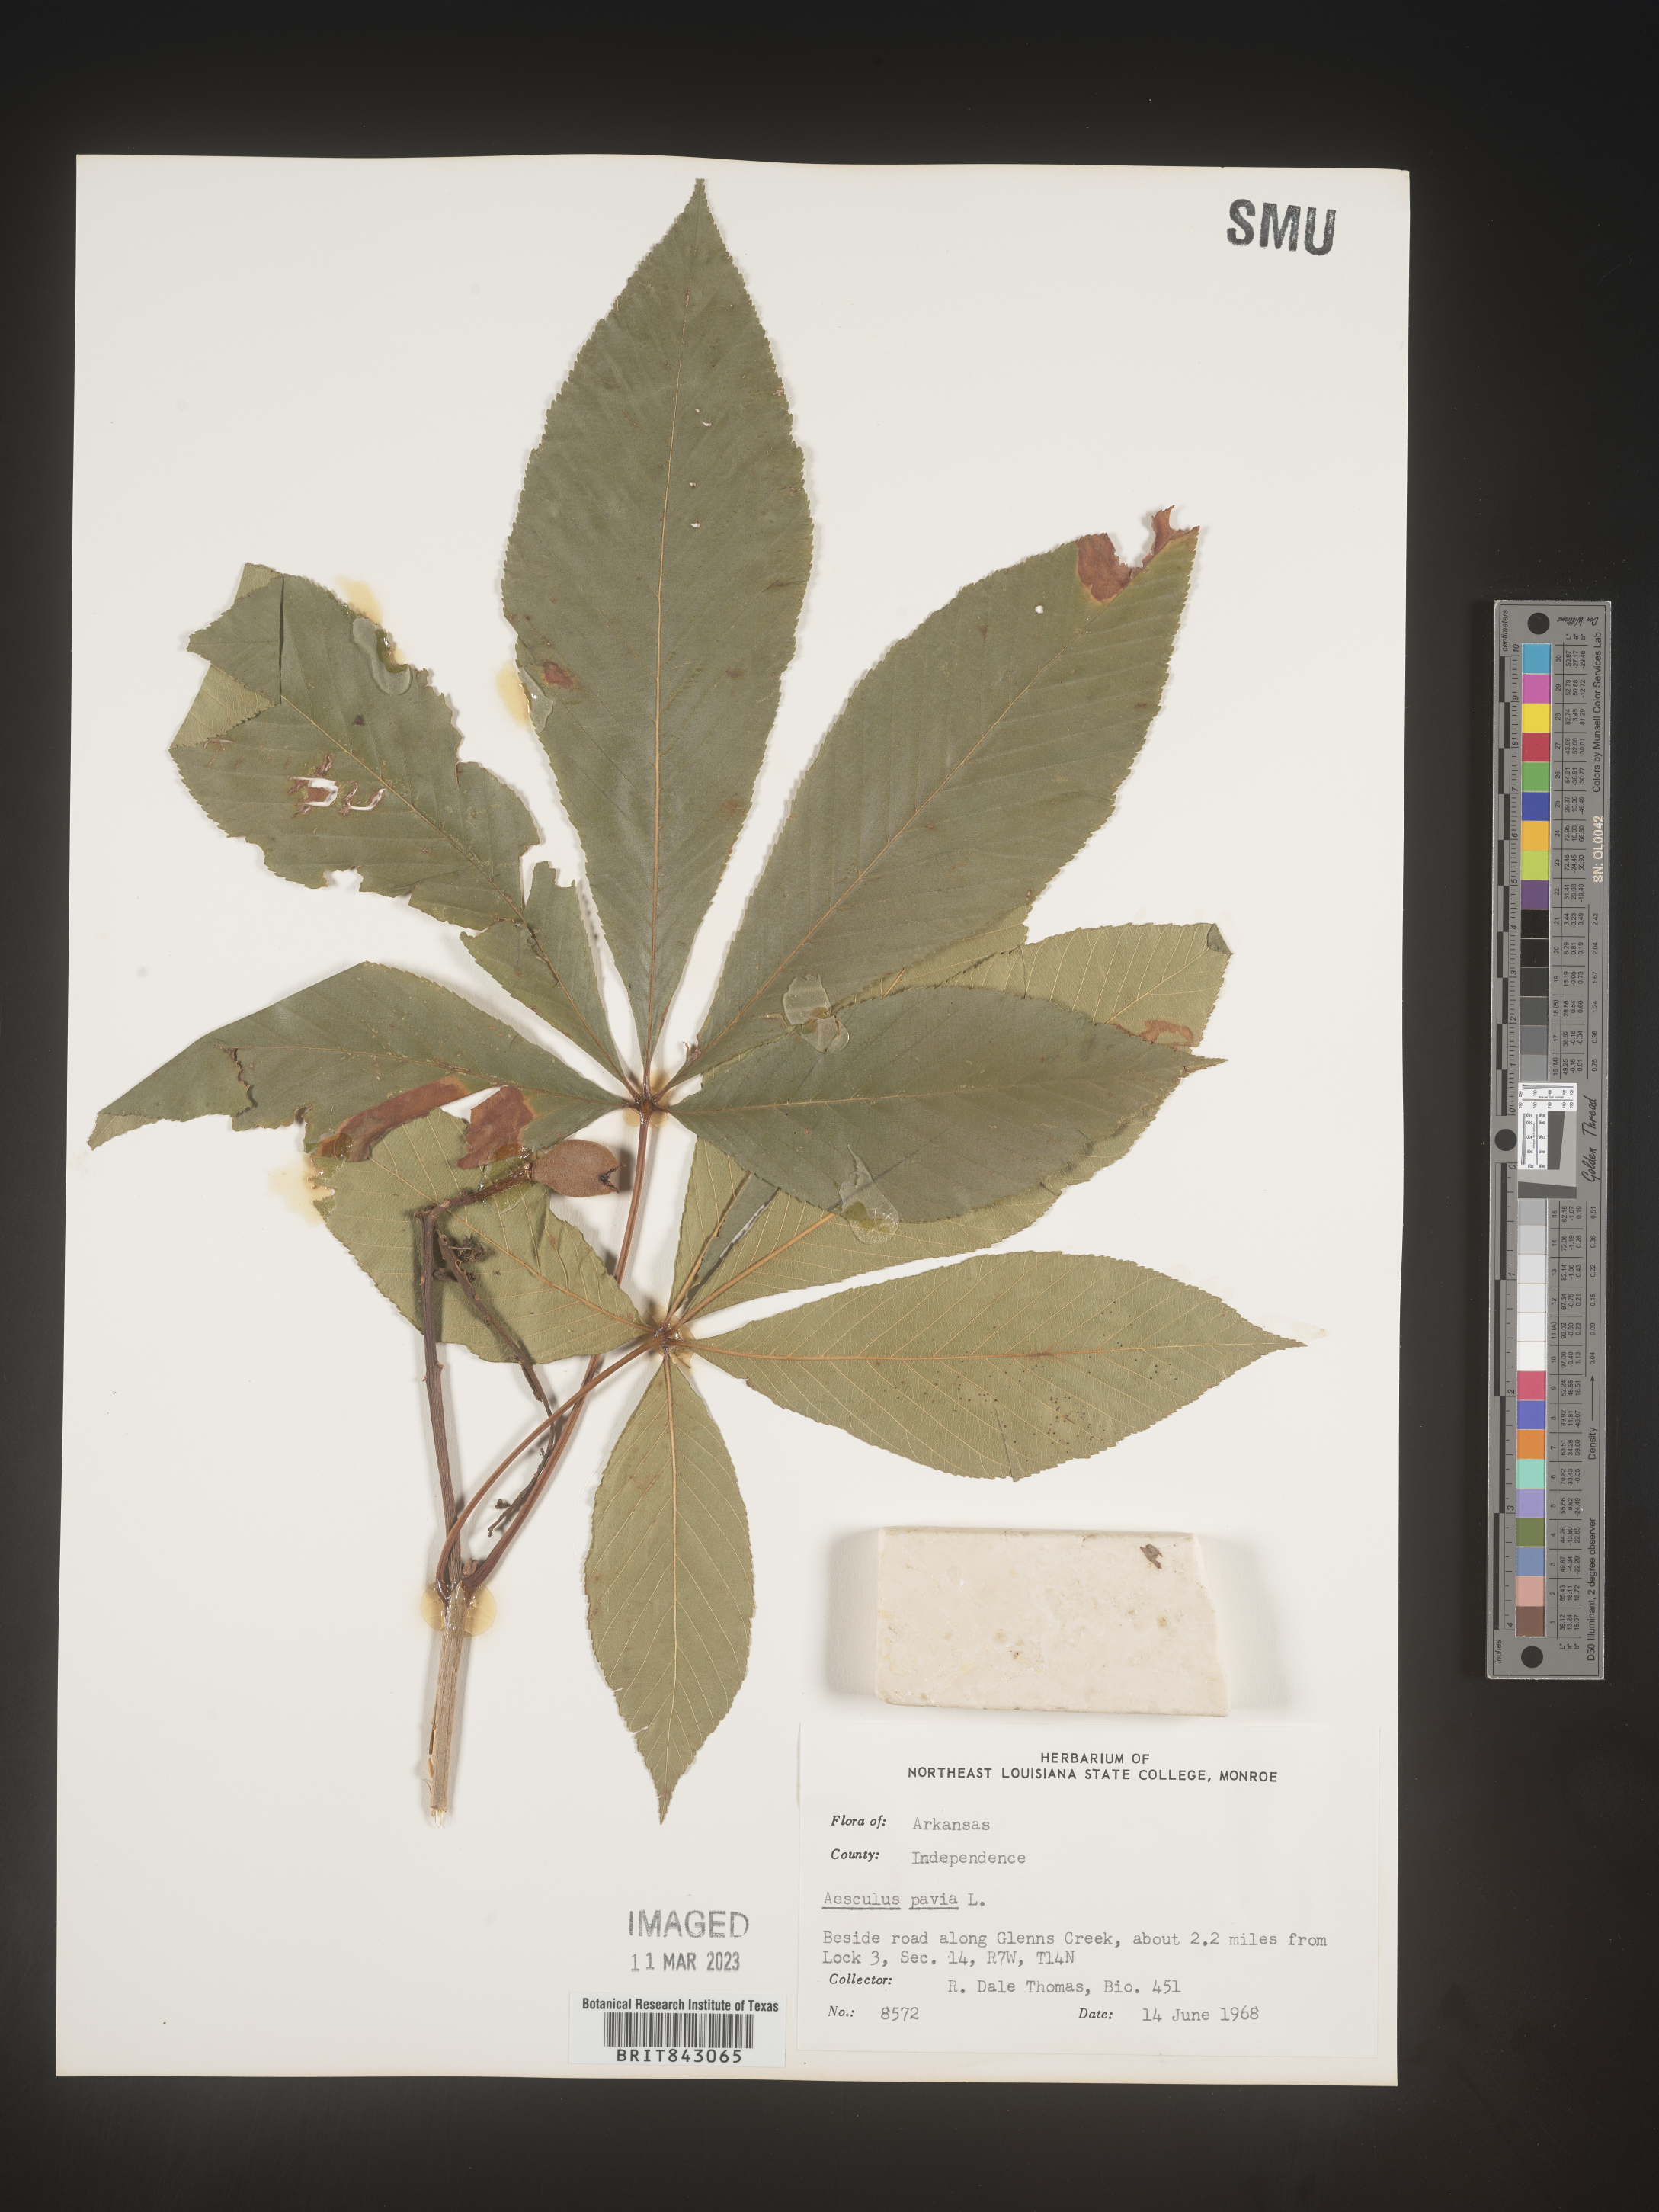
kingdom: Plantae
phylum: Tracheophyta
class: Magnoliopsida
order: Sapindales
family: Sapindaceae
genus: Aesculus
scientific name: Aesculus pavia
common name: Red buckeye
